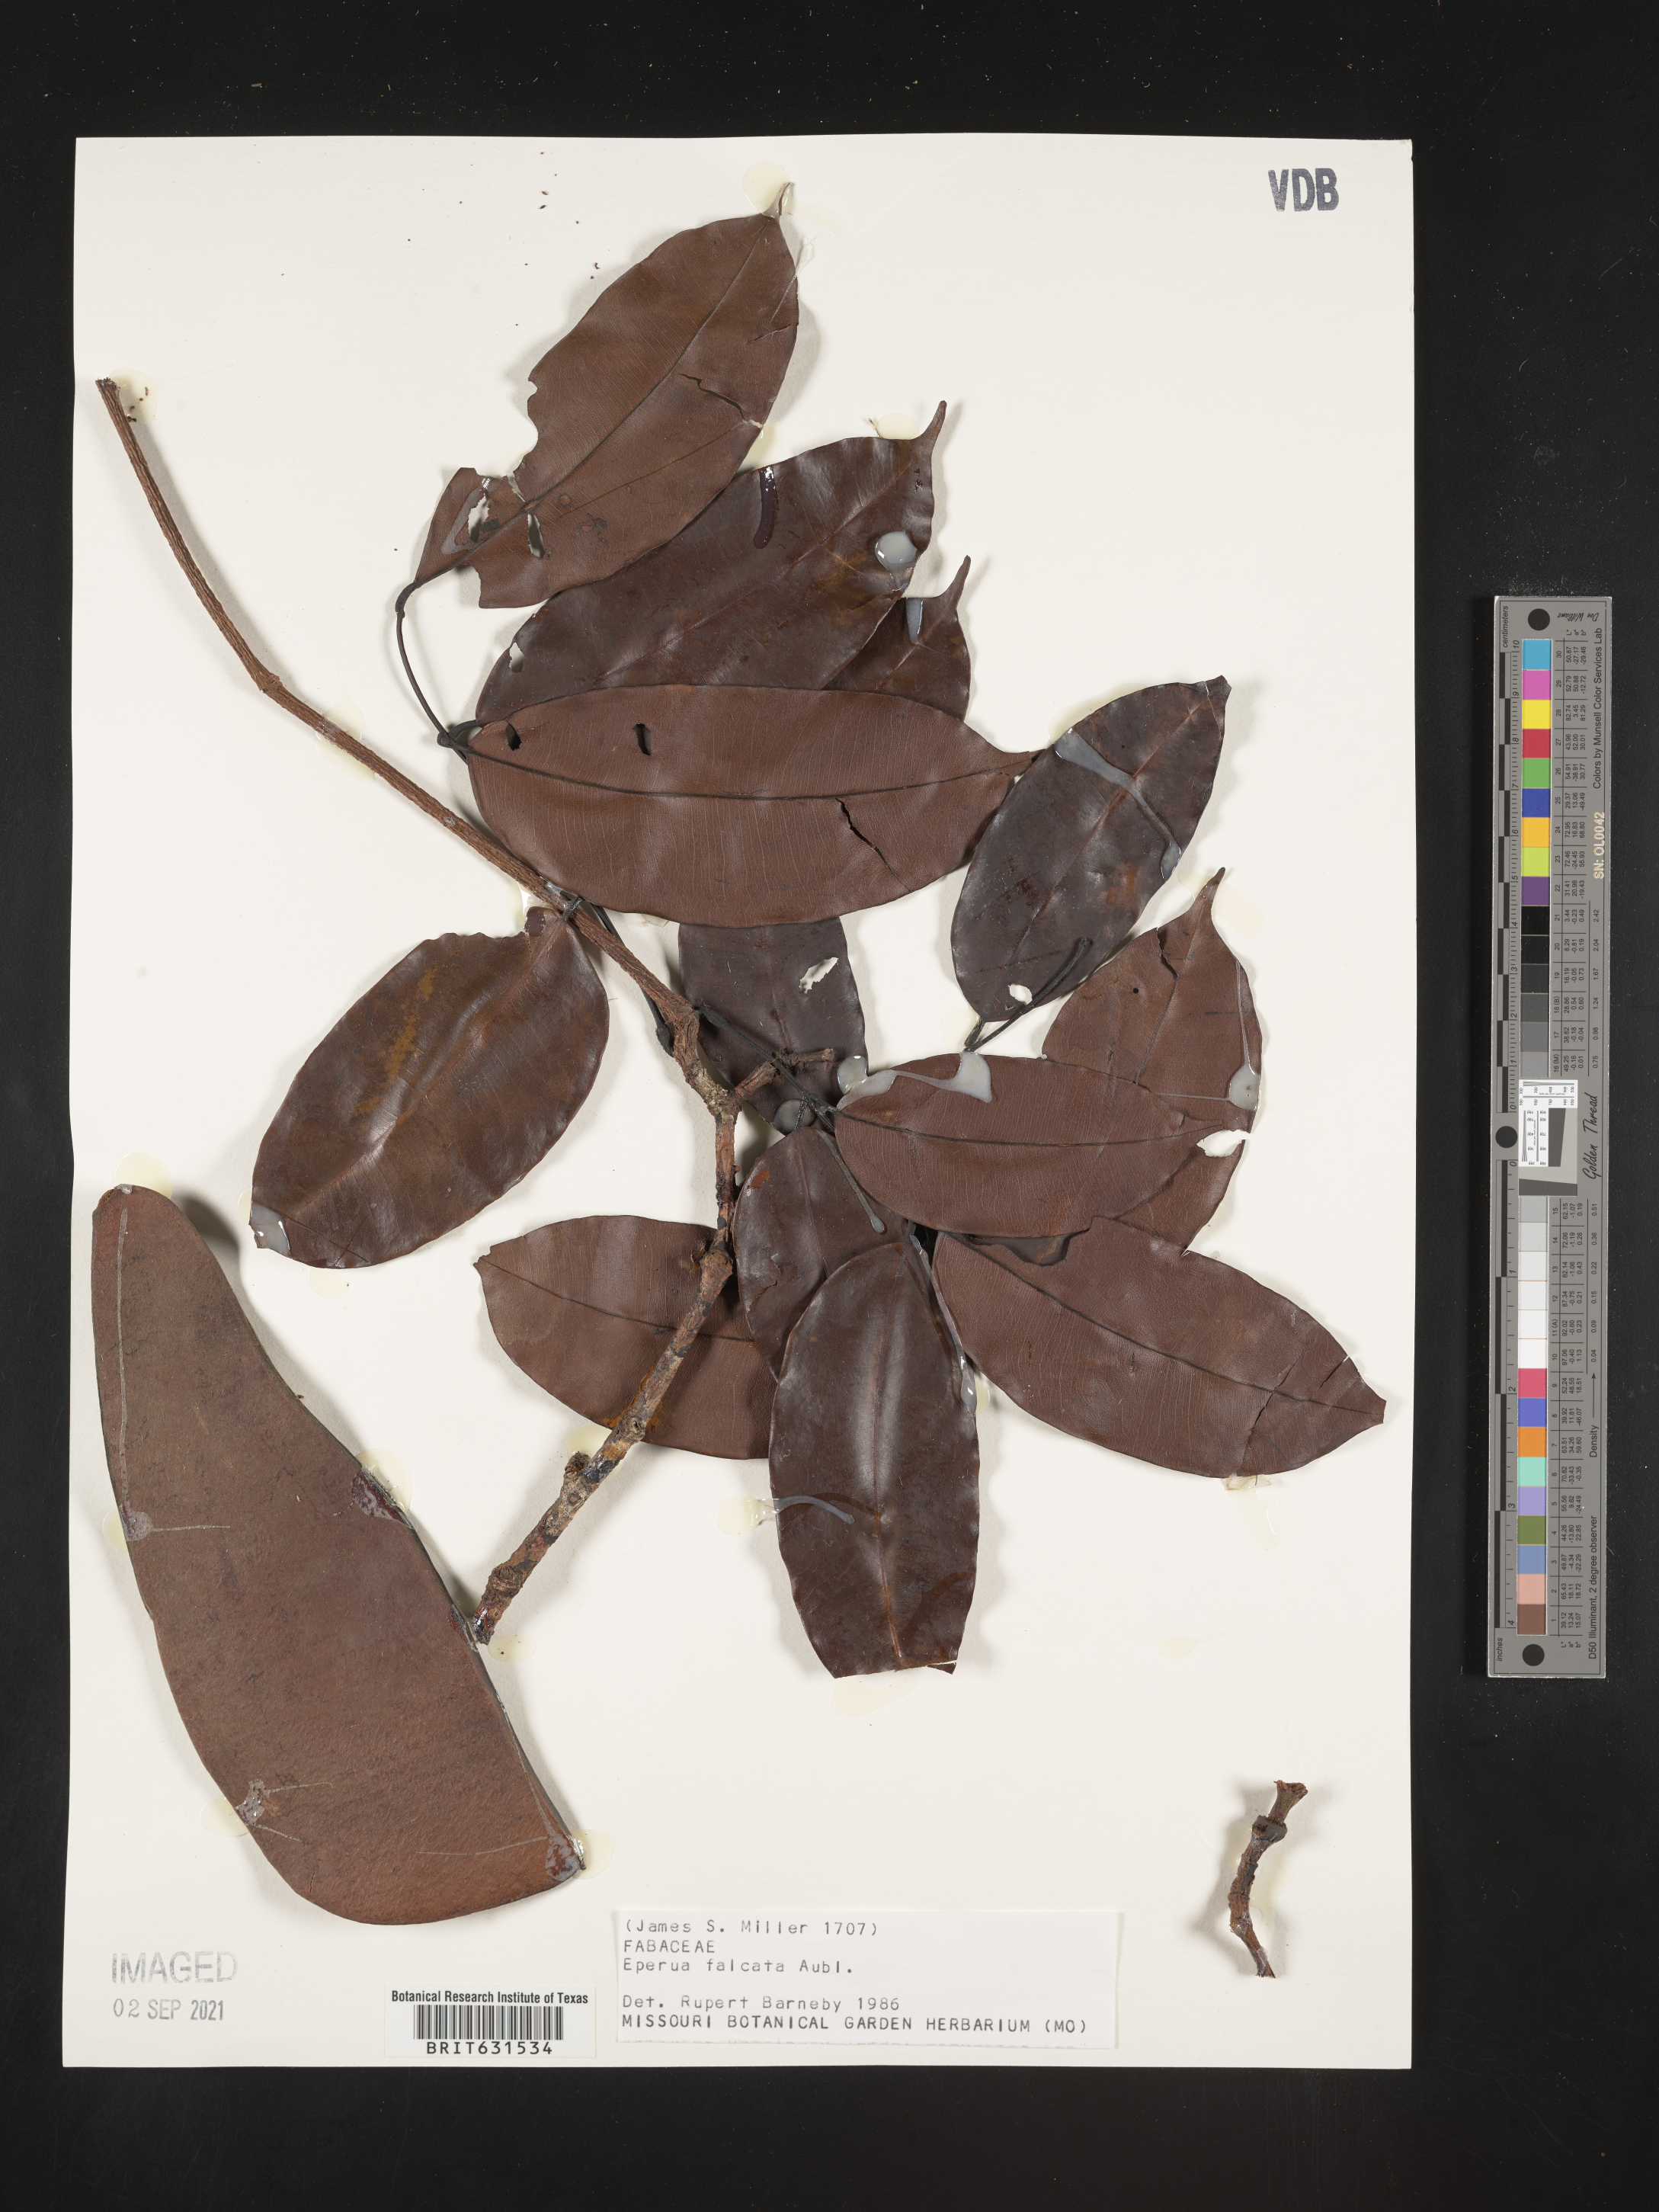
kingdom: Plantae
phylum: Tracheophyta
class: Magnoliopsida
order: Fabales
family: Fabaceae
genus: Eperua
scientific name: Eperua falcata
